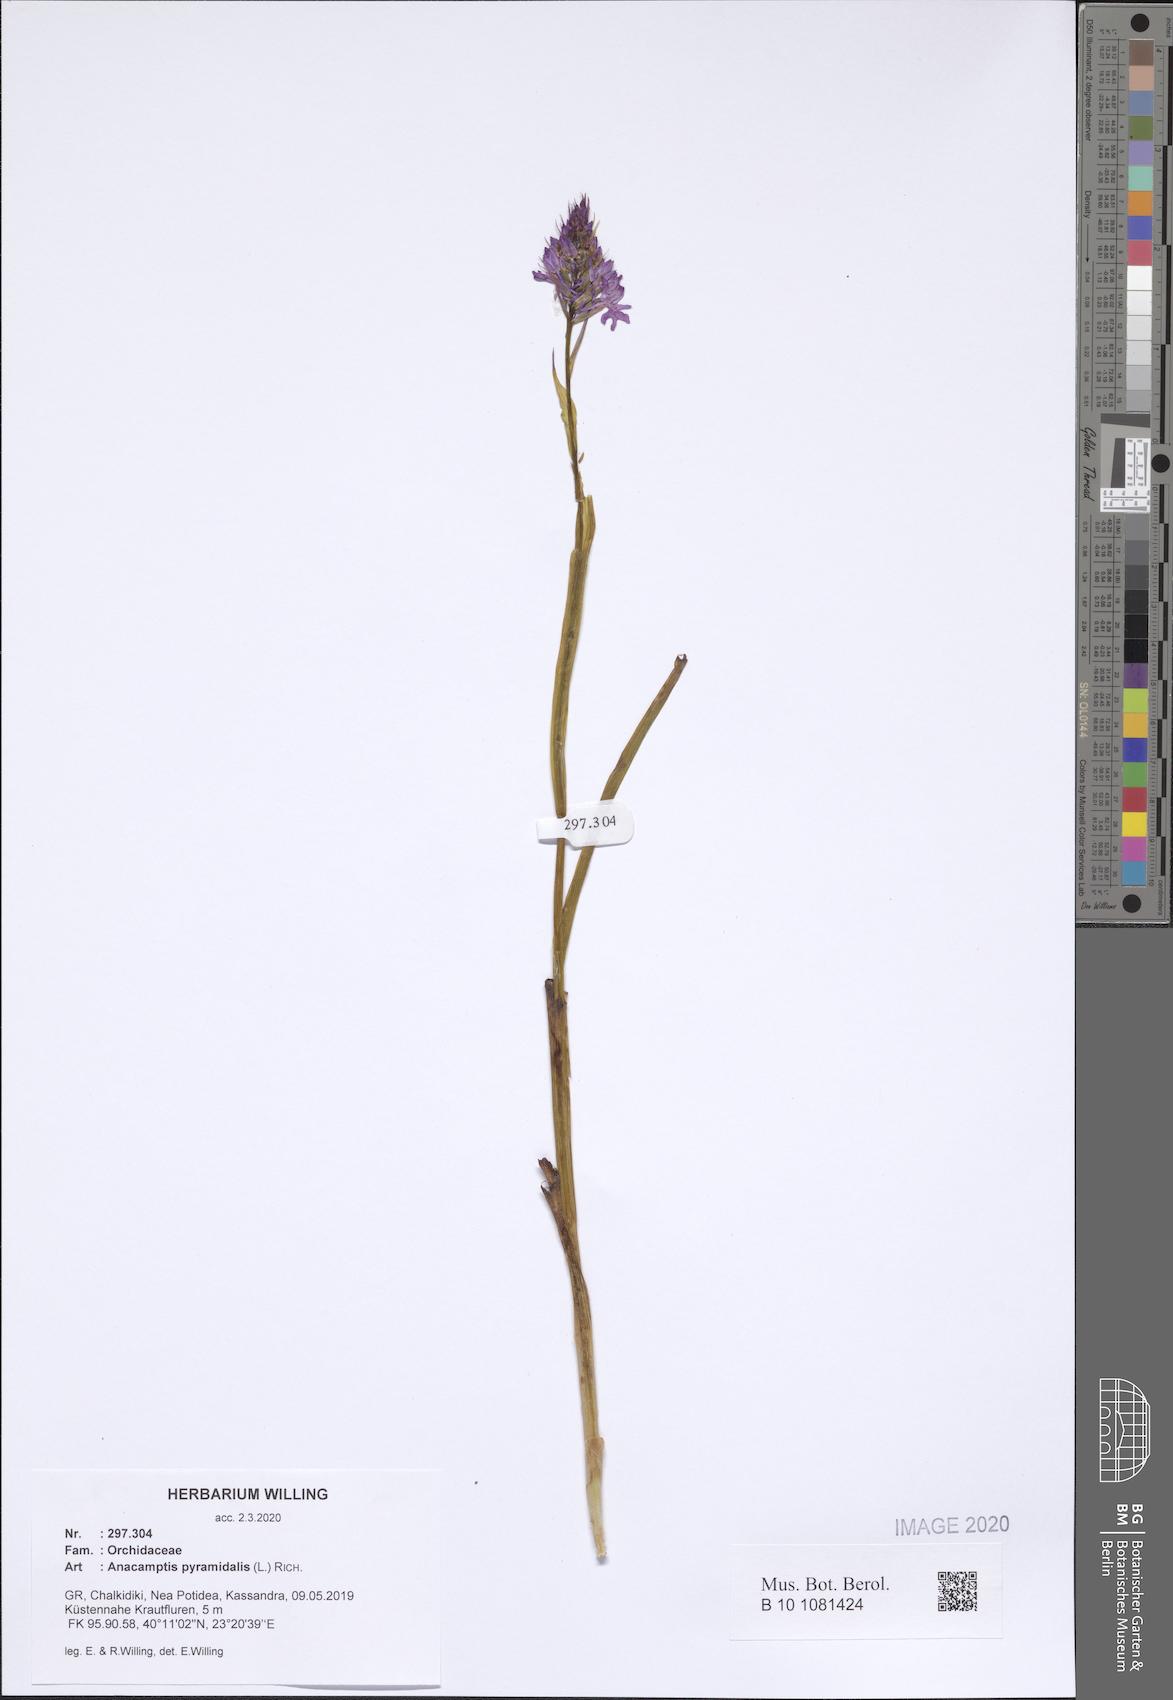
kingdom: Plantae
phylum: Tracheophyta
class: Liliopsida
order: Asparagales
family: Orchidaceae
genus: Anacamptis
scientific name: Anacamptis pyramidalis
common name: Pyramidal orchid
